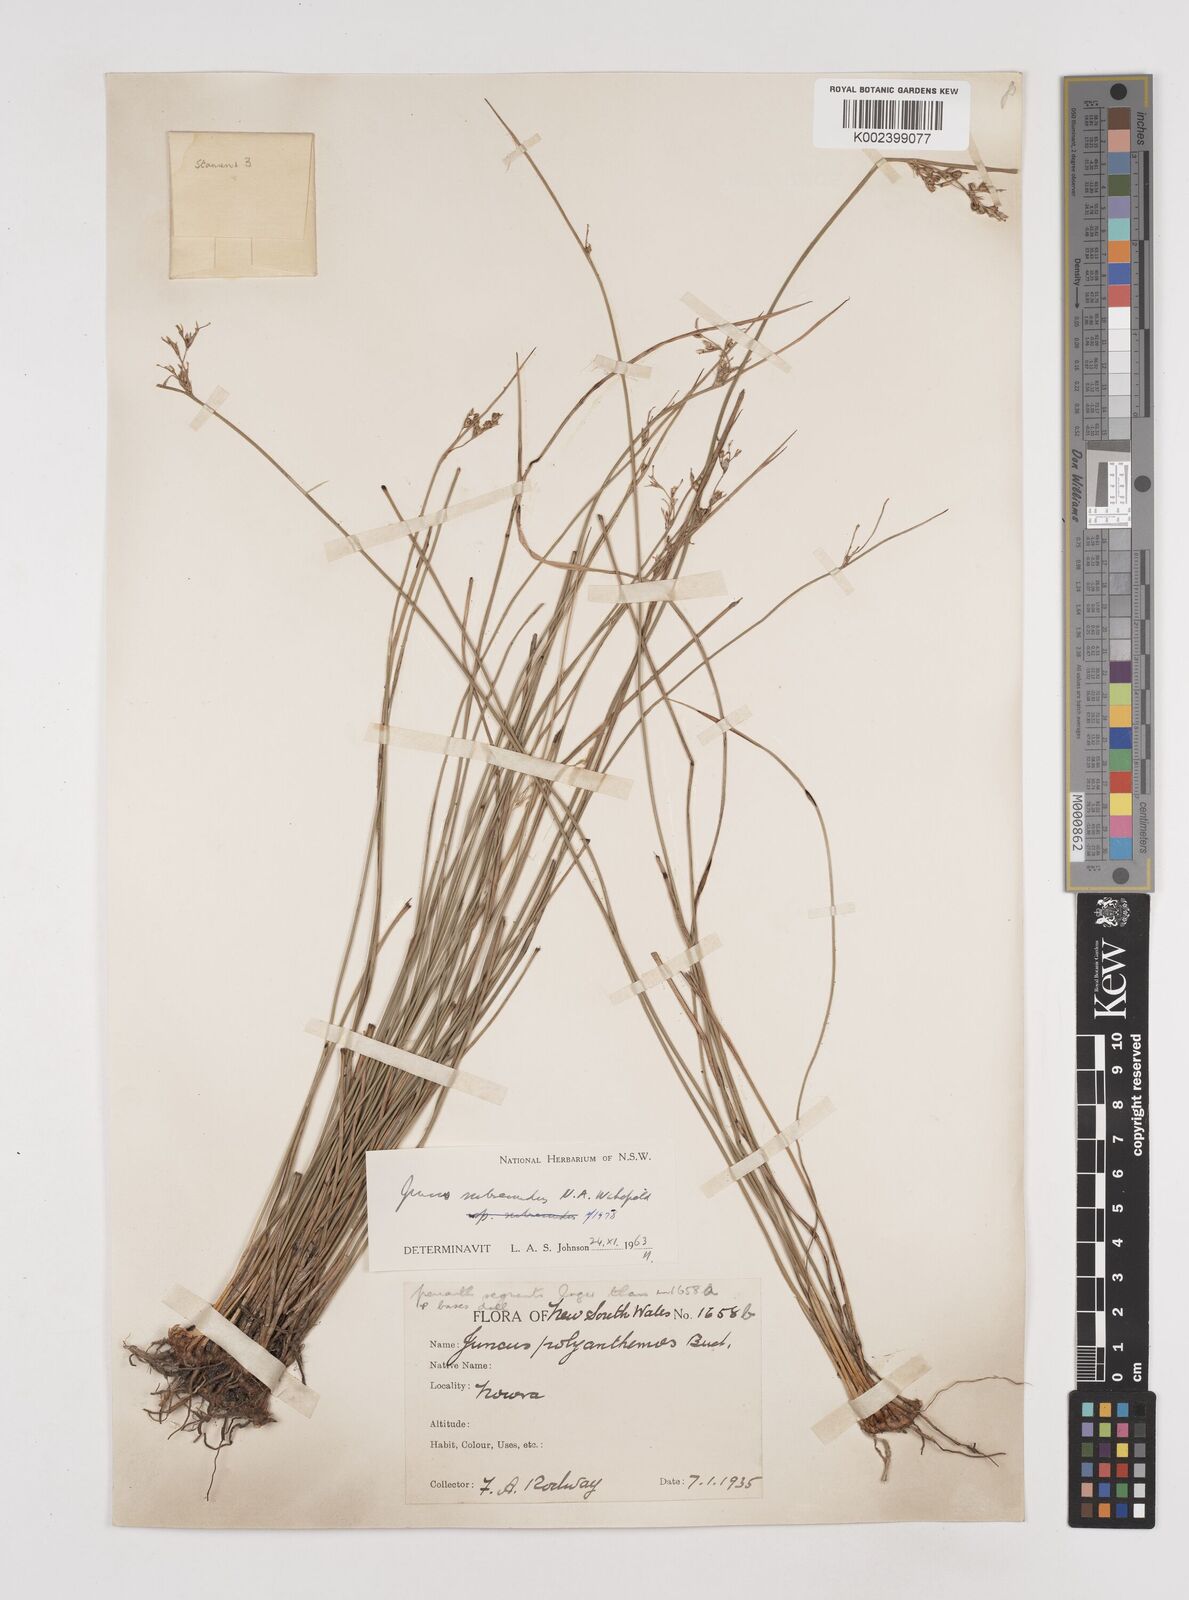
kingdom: Plantae
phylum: Tracheophyta
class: Liliopsida
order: Poales
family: Juncaceae
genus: Juncus
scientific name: Juncus subsecundus
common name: Fingered rush
